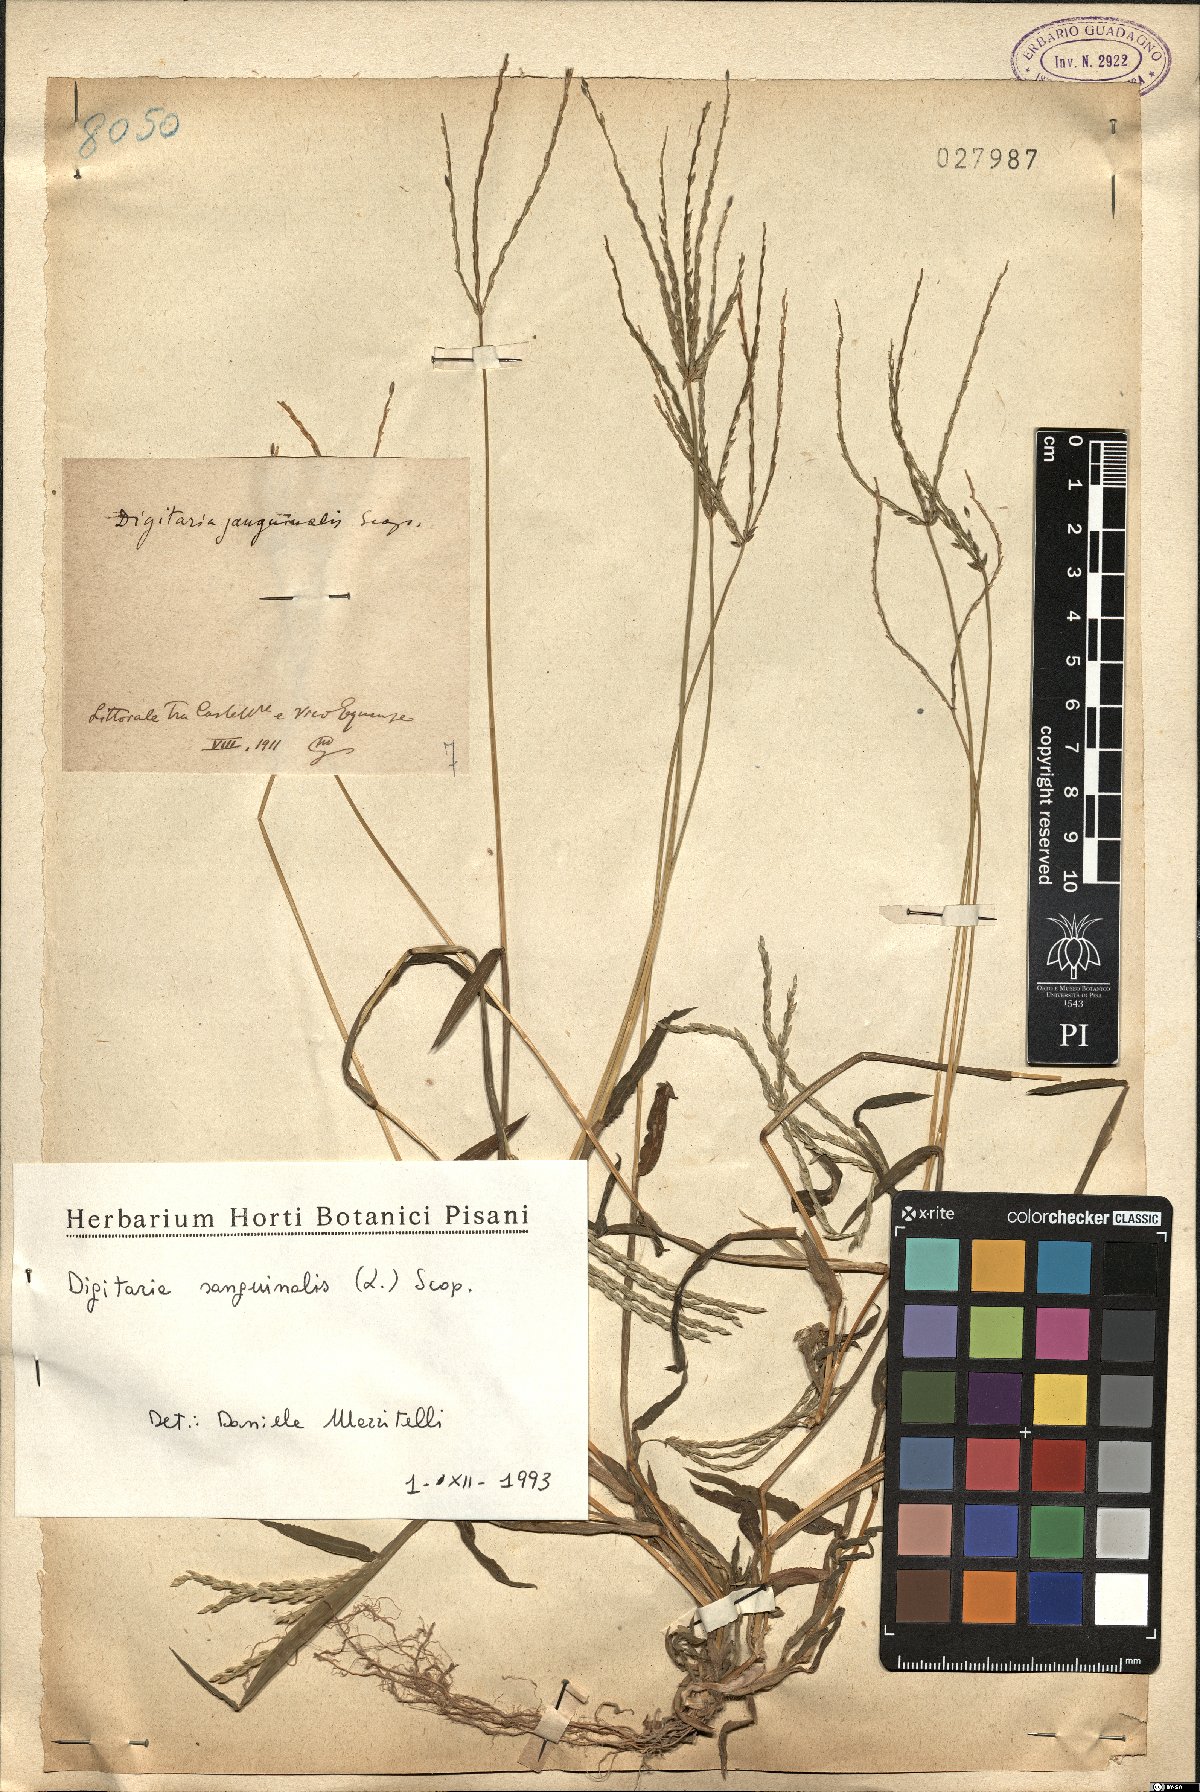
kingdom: Plantae
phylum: Tracheophyta
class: Liliopsida
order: Poales
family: Poaceae
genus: Digitaria
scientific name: Digitaria sanguinalis
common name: Hairy crabgrass
